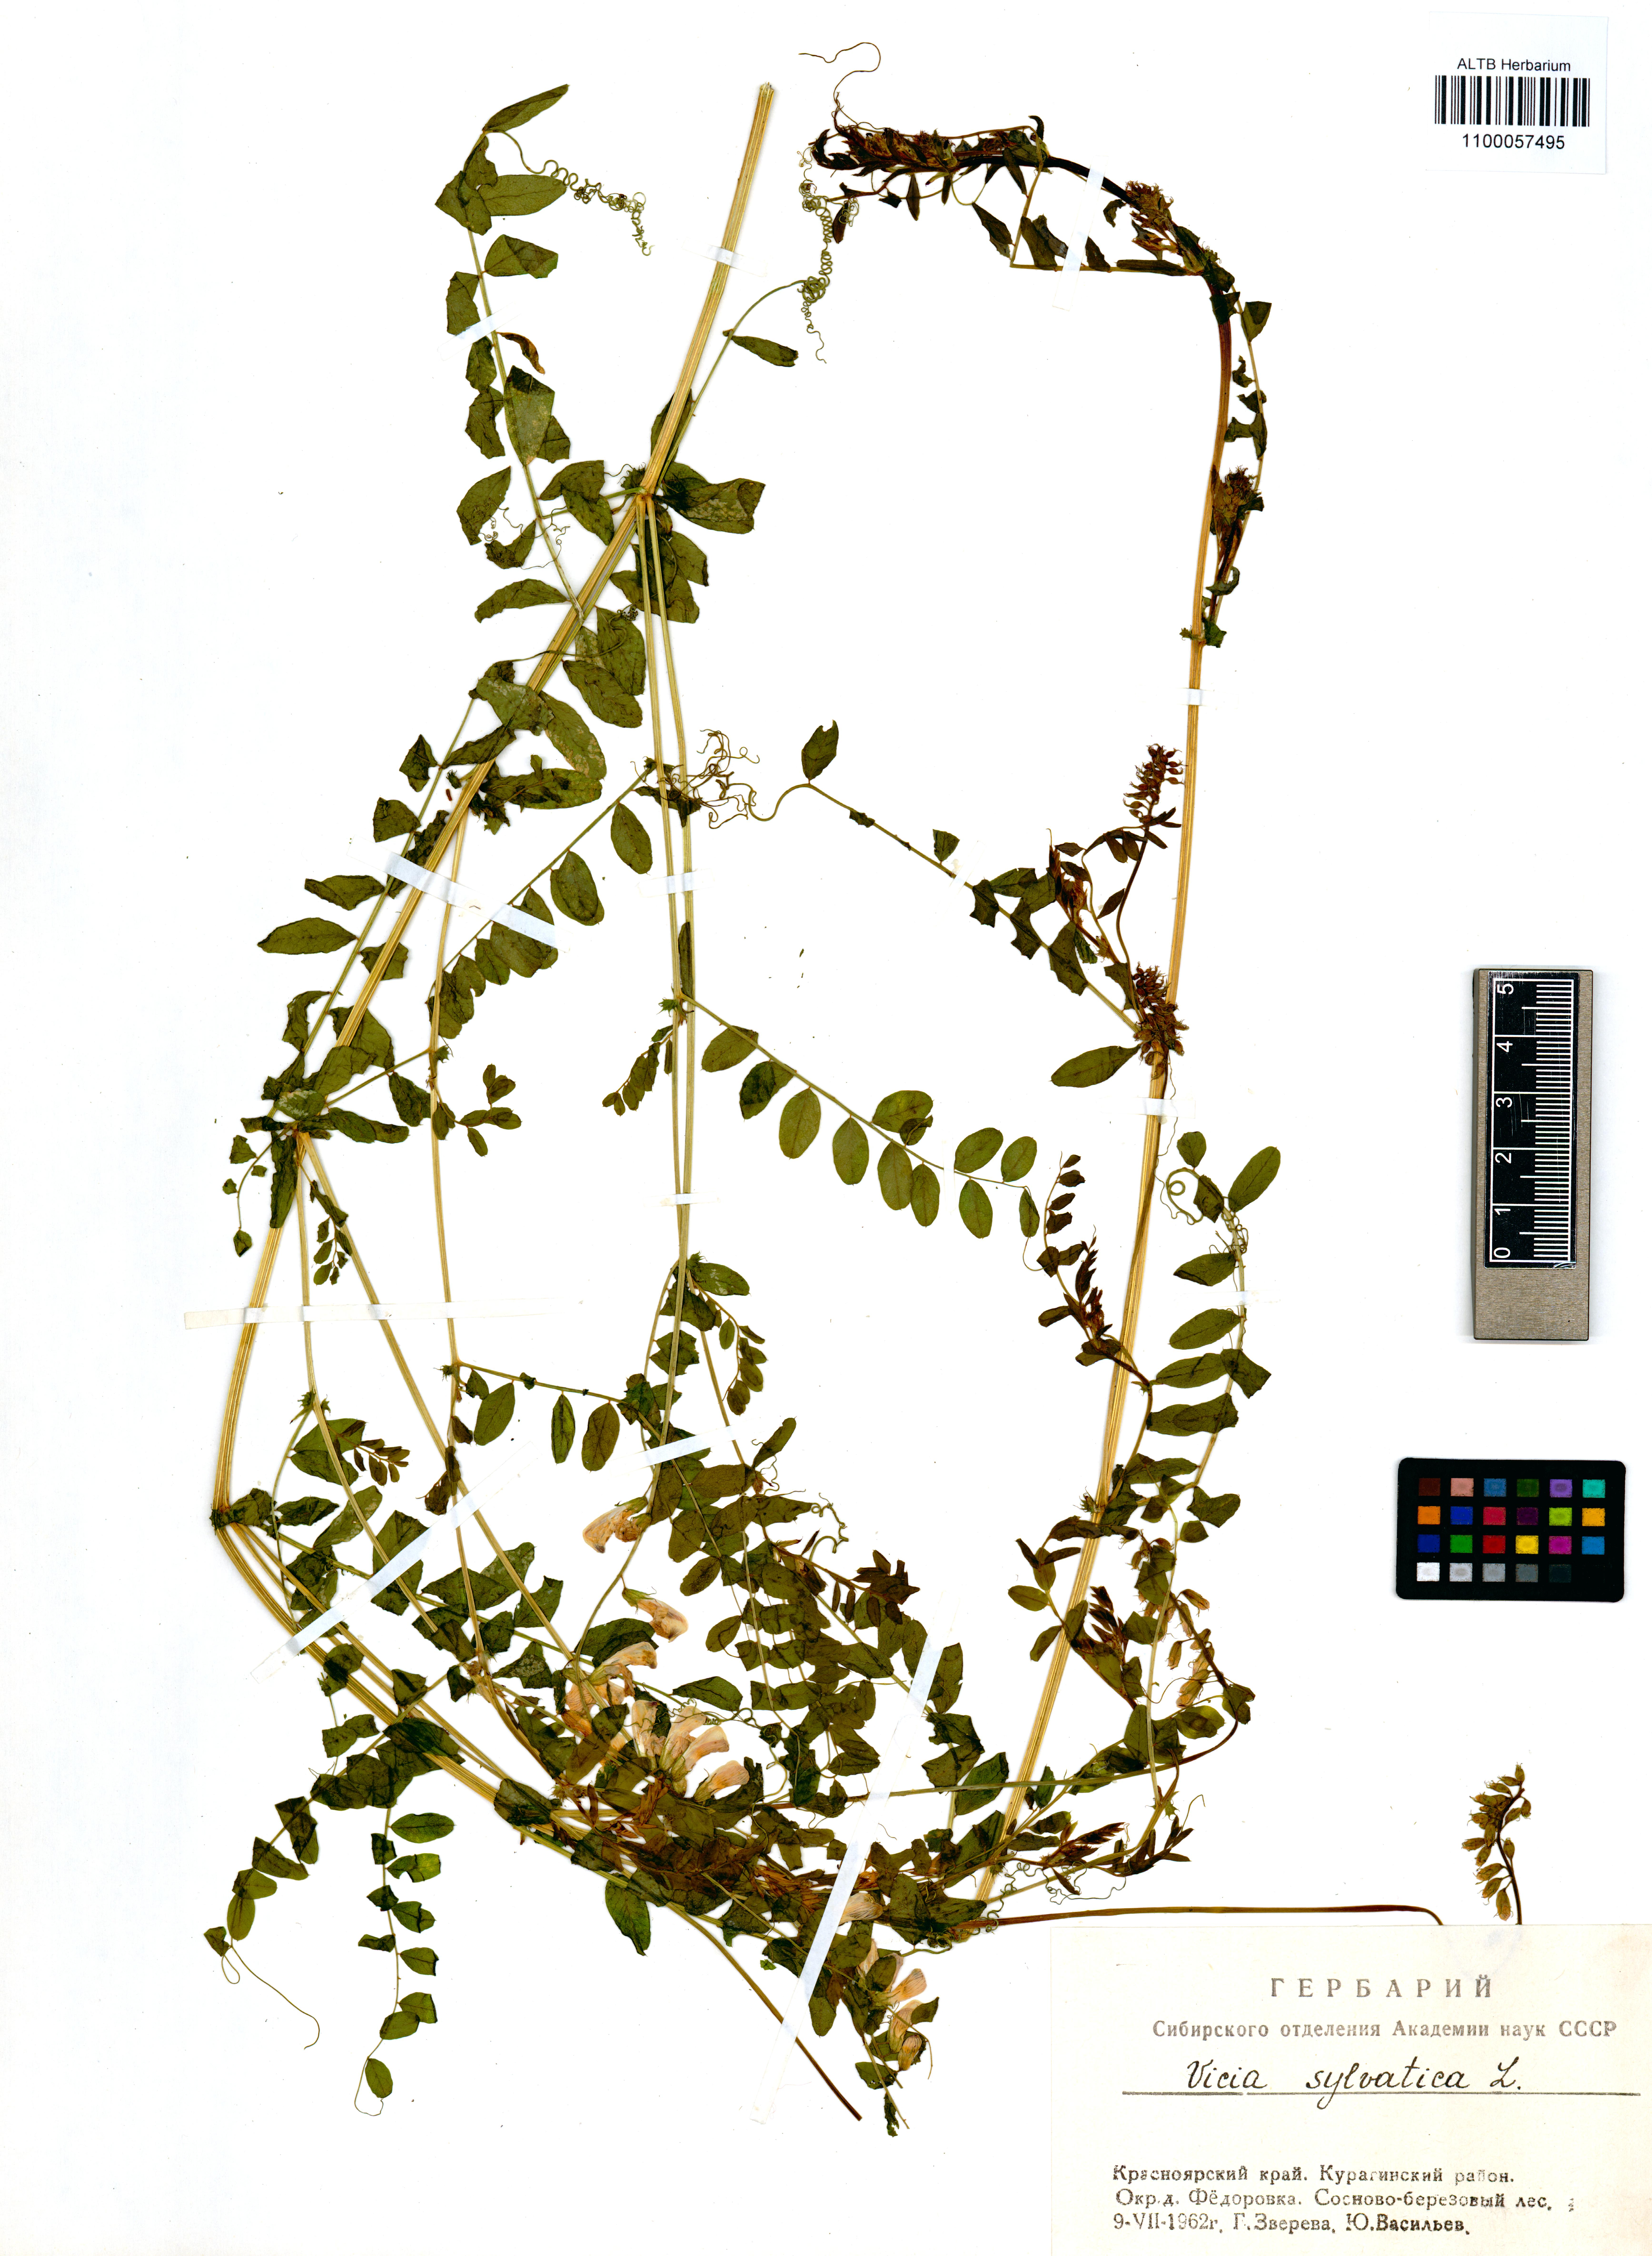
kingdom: Plantae
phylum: Tracheophyta
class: Magnoliopsida
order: Fabales
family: Fabaceae
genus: Vicia
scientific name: Vicia sylvatica
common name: Wood vetch
